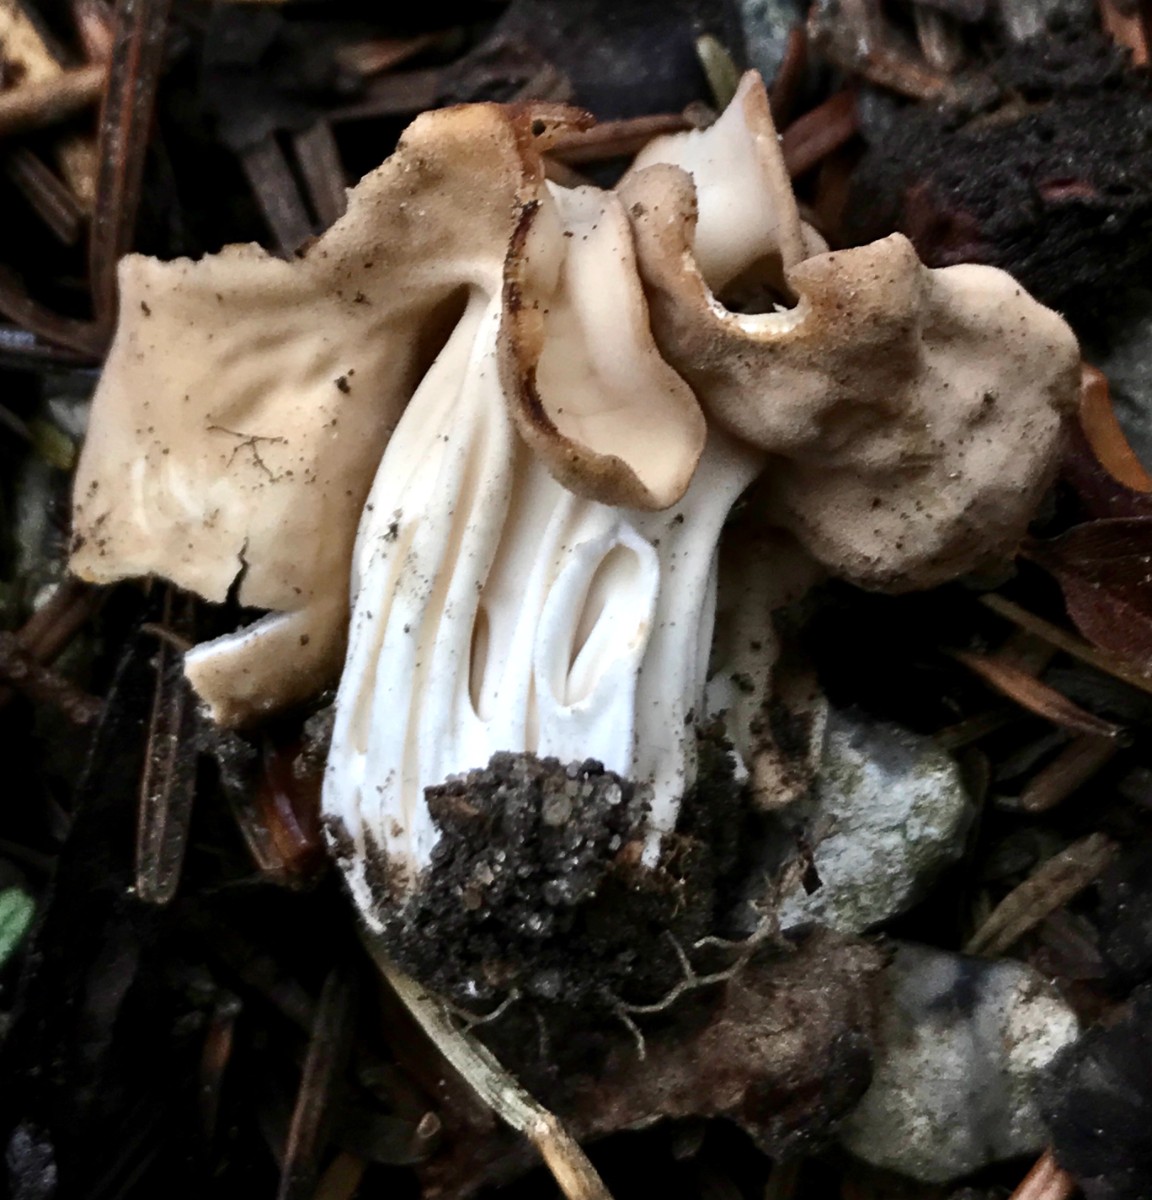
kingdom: Fungi
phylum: Ascomycota
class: Pezizomycetes
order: Pezizales
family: Helvellaceae
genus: Helvella
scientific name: Helvella crispa
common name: kruset foldhat
